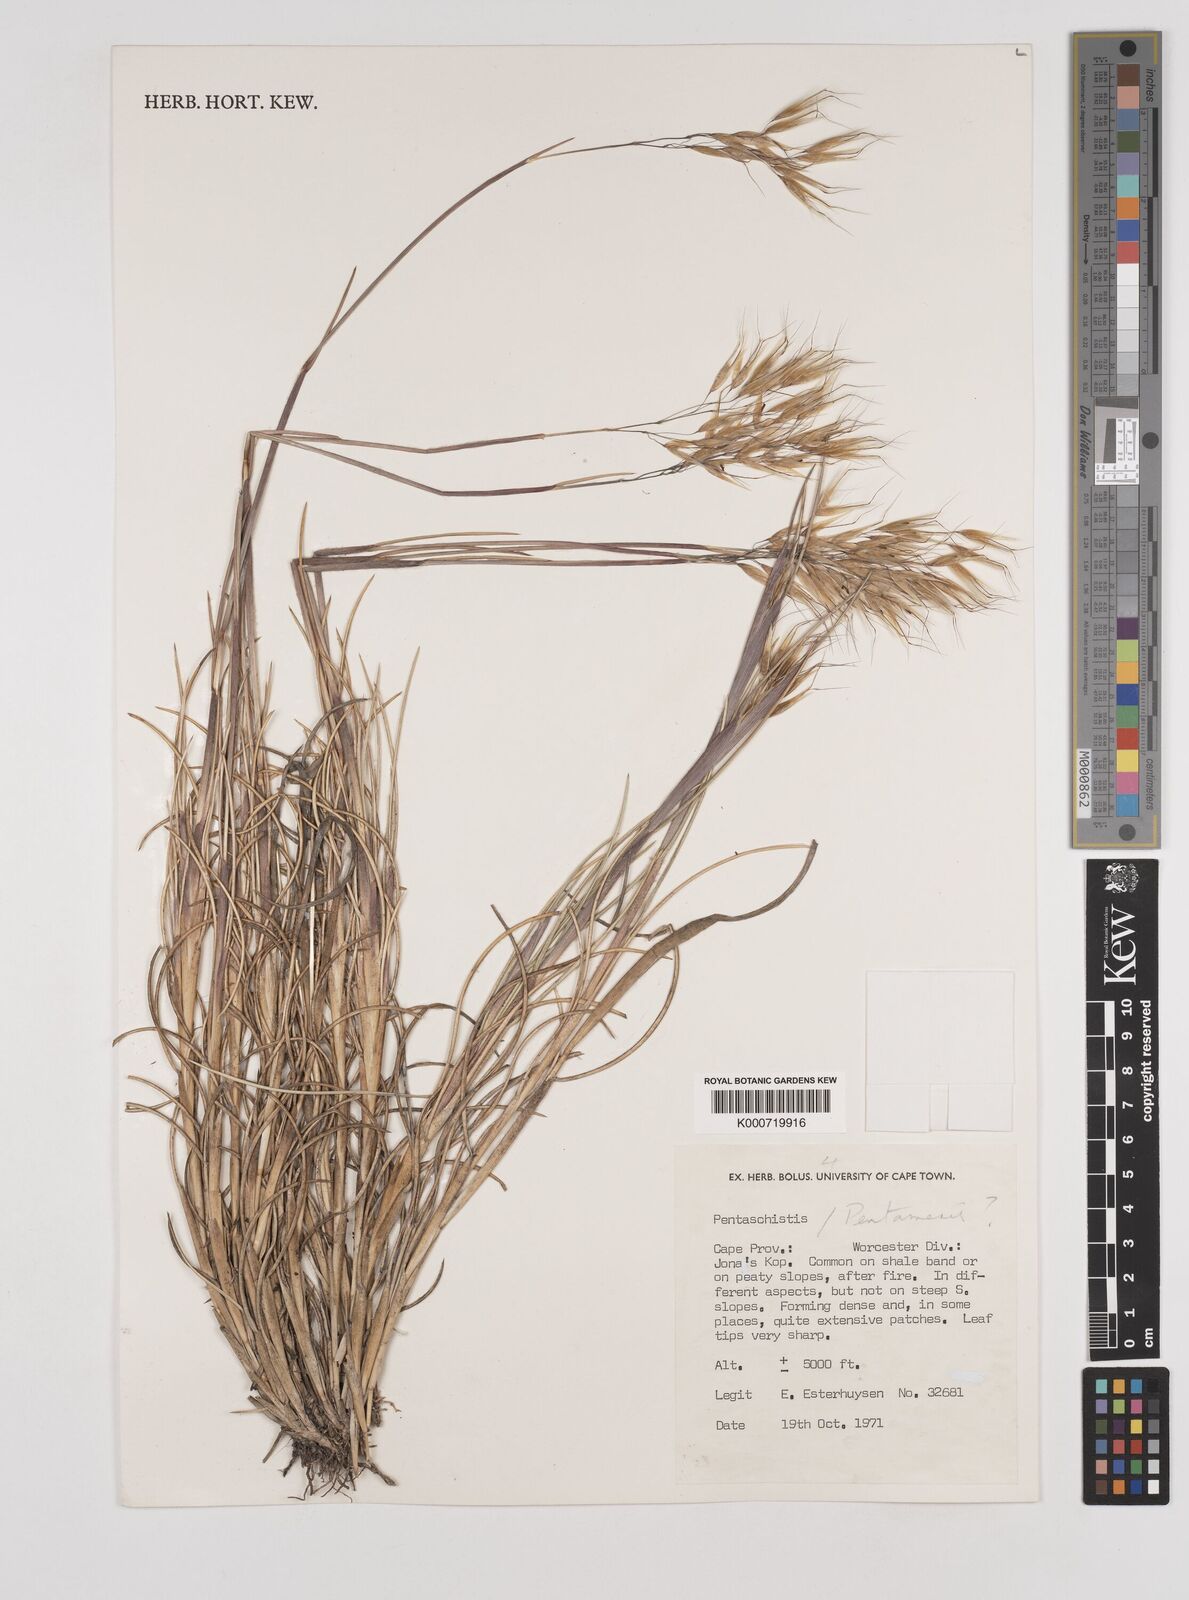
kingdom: Plantae
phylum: Tracheophyta
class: Liliopsida
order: Poales
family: Poaceae
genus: Pentameris
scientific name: Pentameris dregeana
